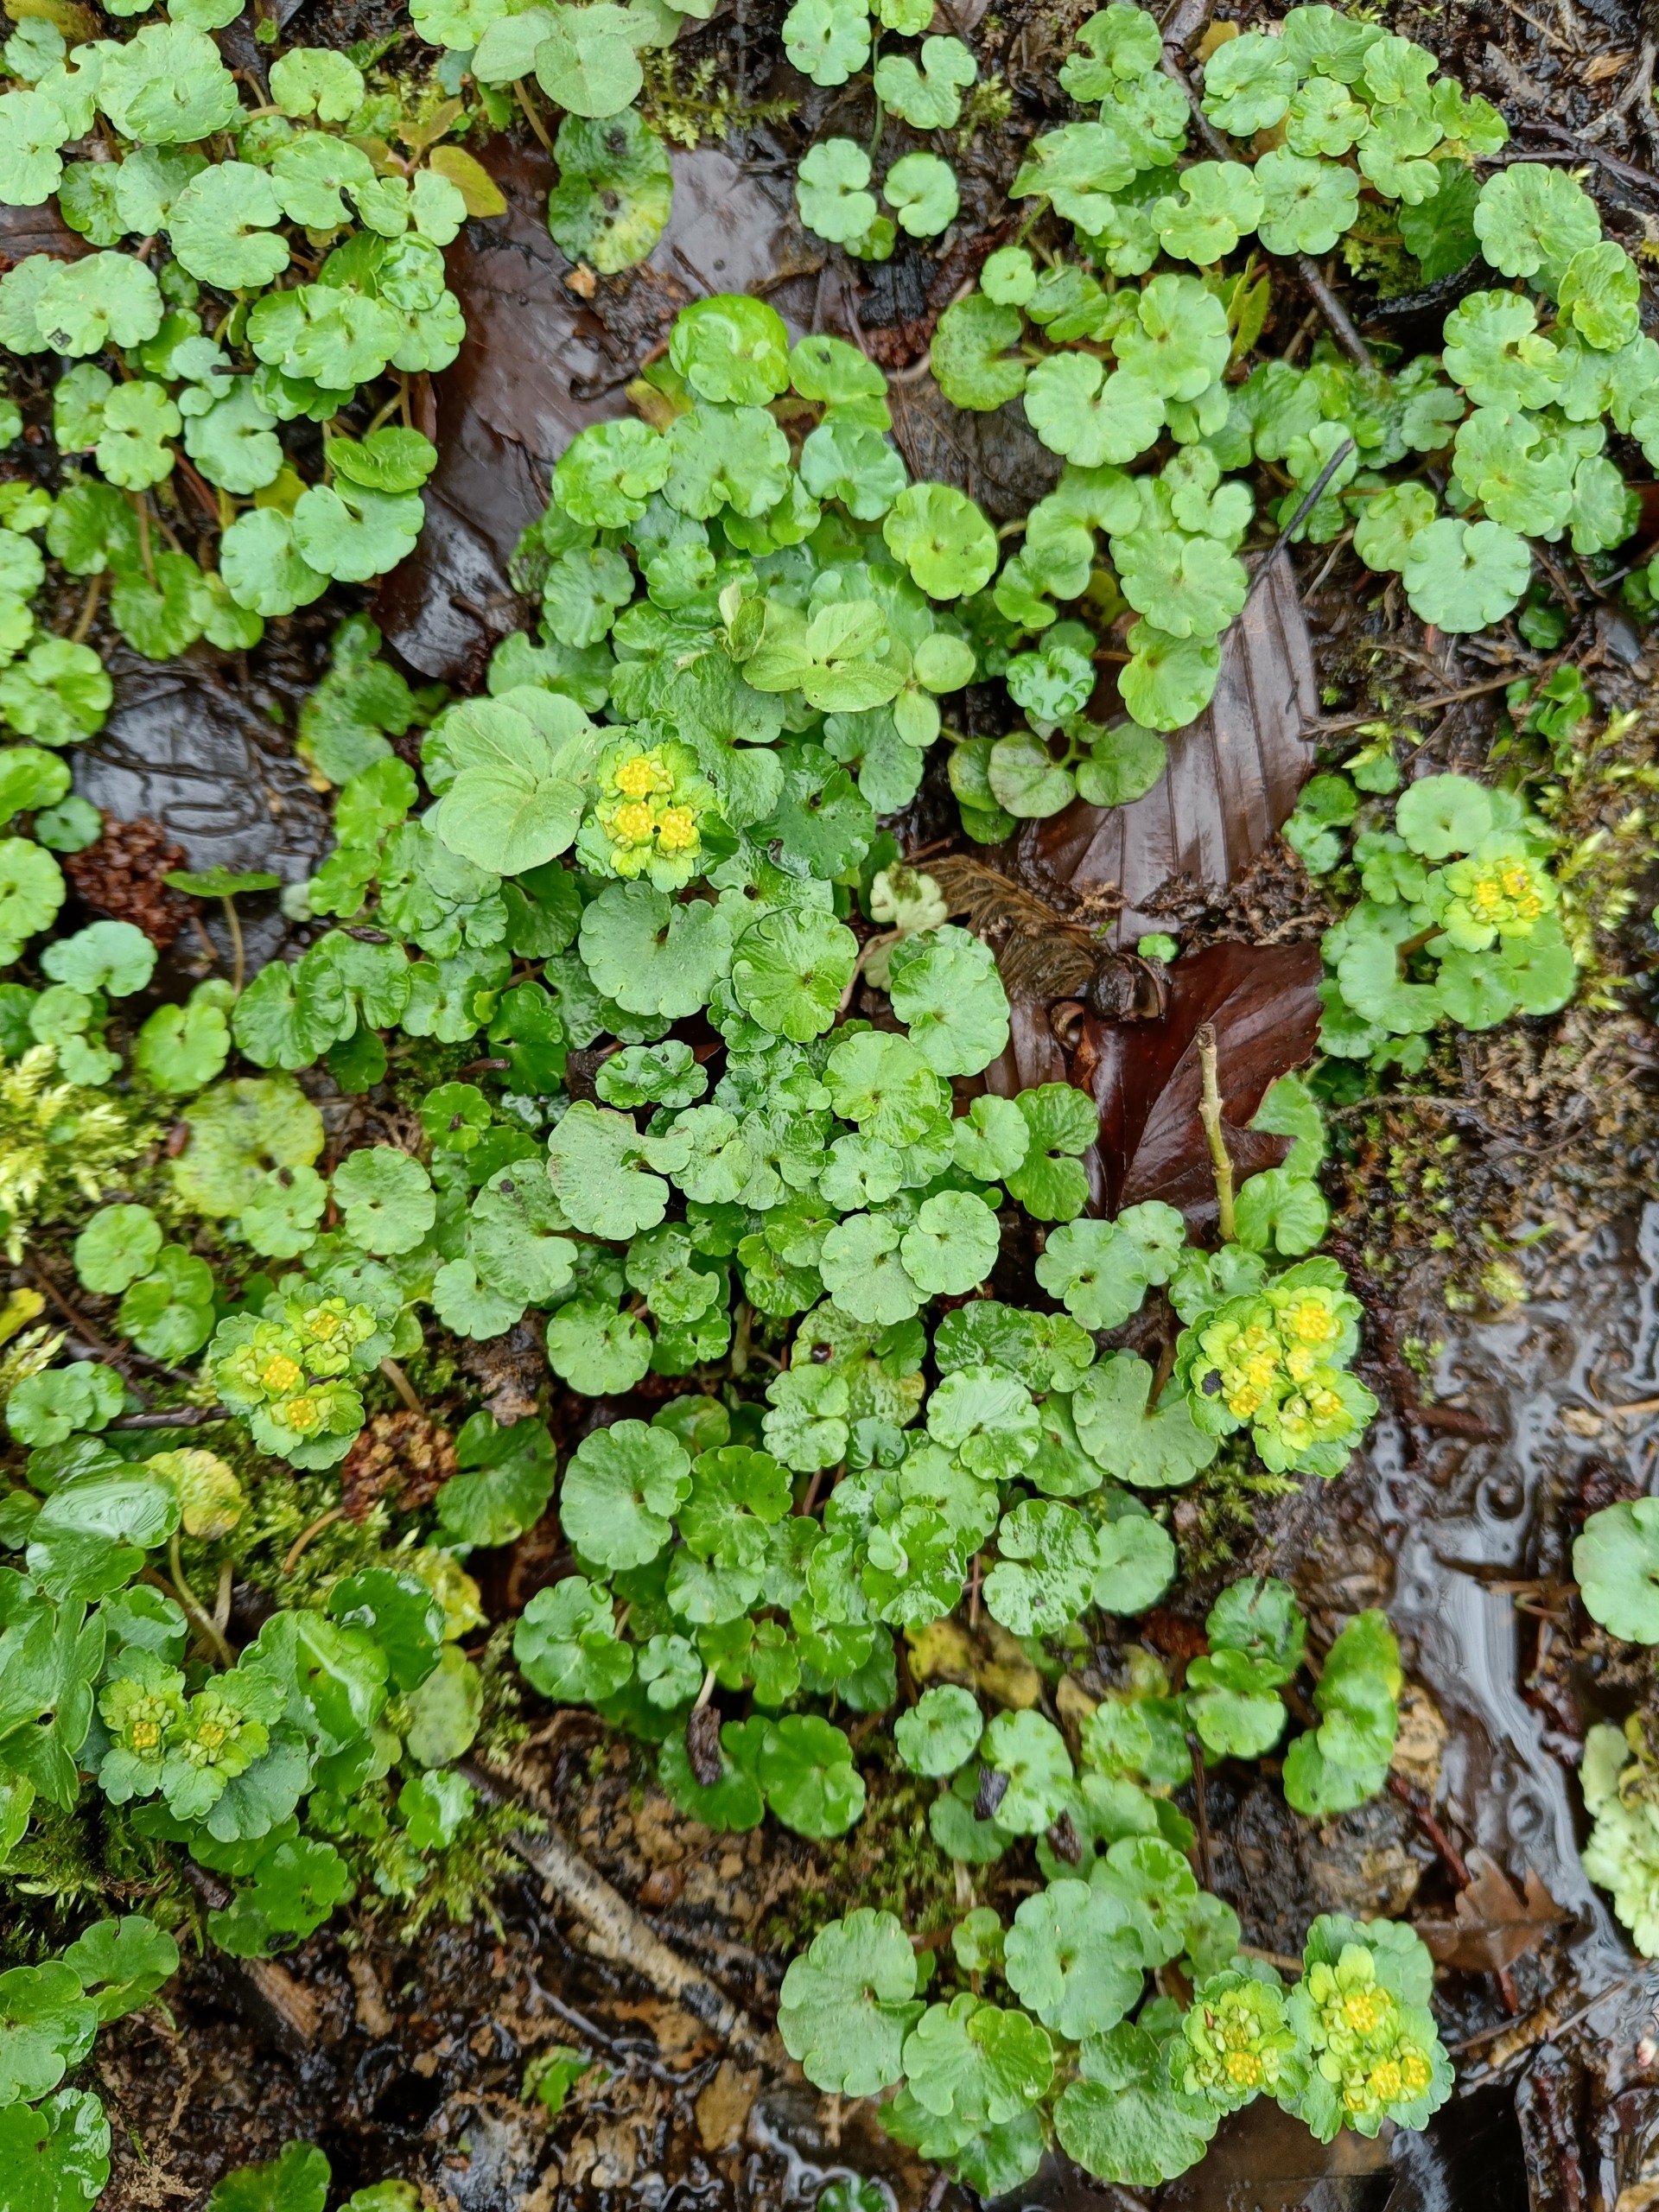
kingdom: Plantae
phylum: Tracheophyta
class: Magnoliopsida
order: Saxifragales
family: Saxifragaceae
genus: Chrysosplenium
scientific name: Chrysosplenium alternifolium
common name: Almindelig milturt
